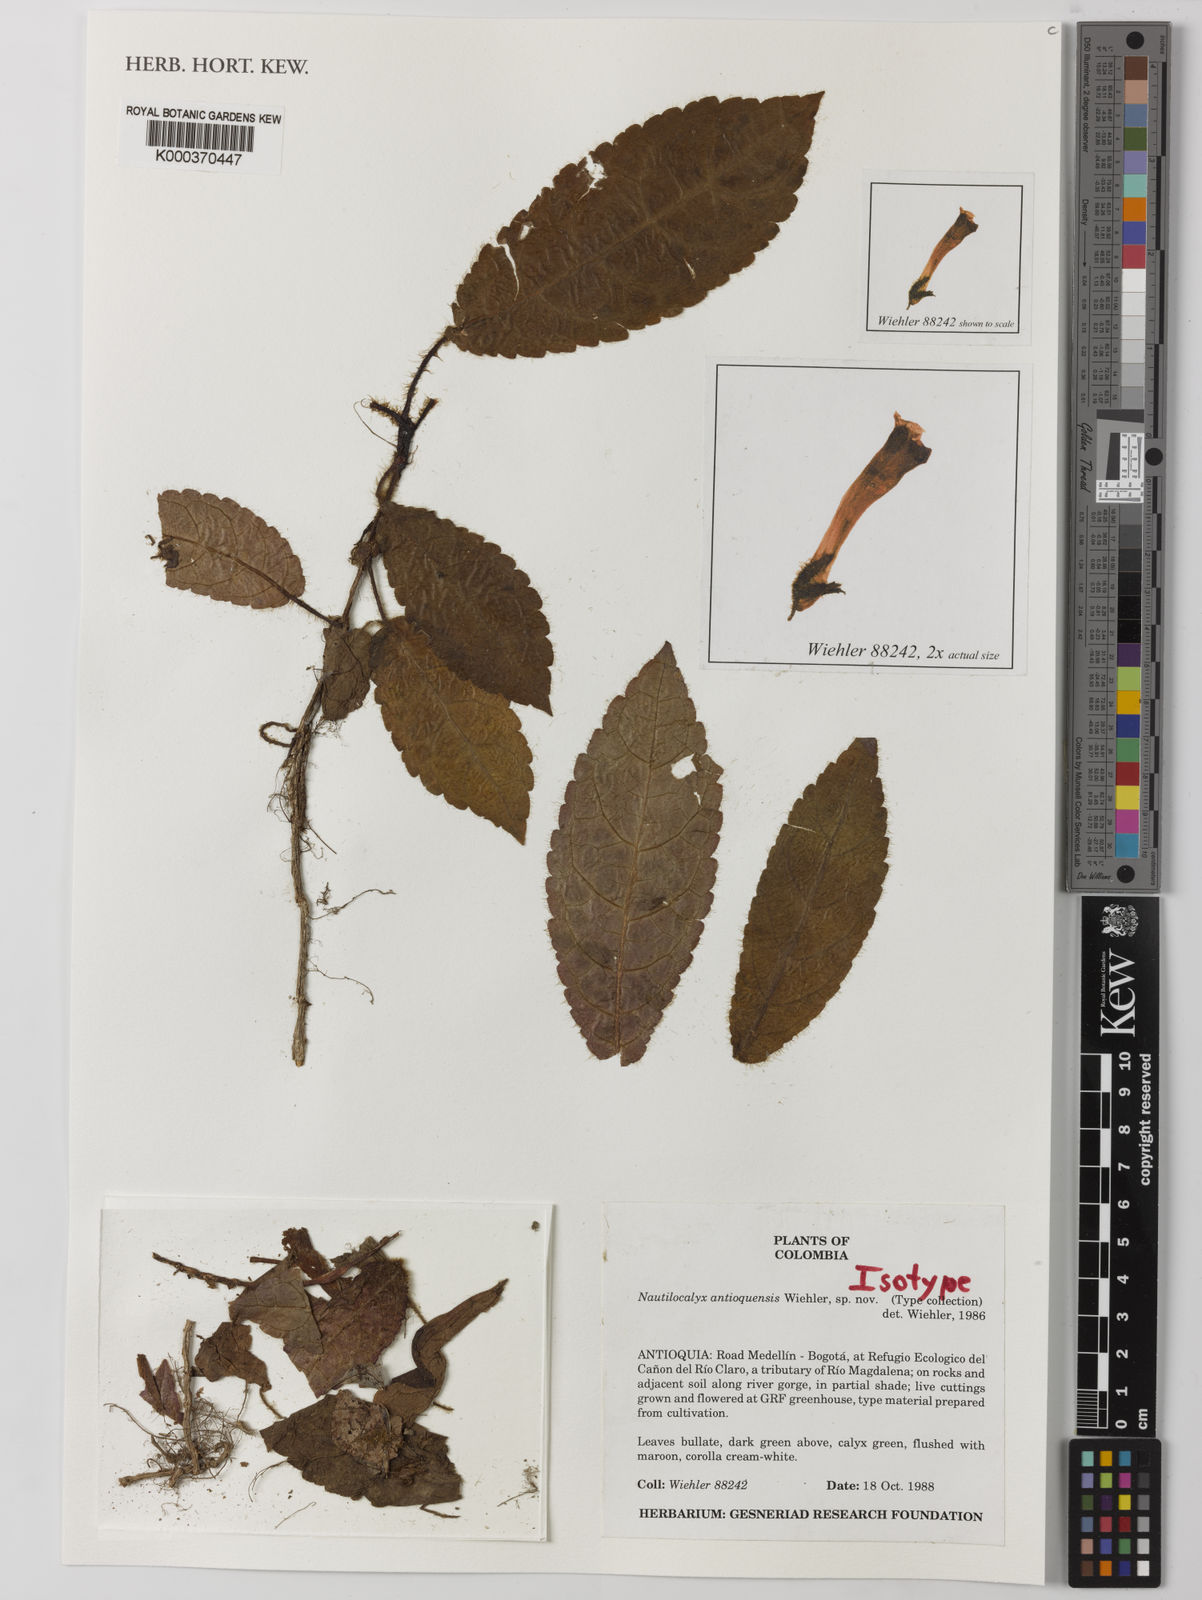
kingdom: Plantae
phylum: Tracheophyta
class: Magnoliopsida
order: Lamiales
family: Gesneriaceae
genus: Nautilocalyx
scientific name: Nautilocalyx antioquensis
